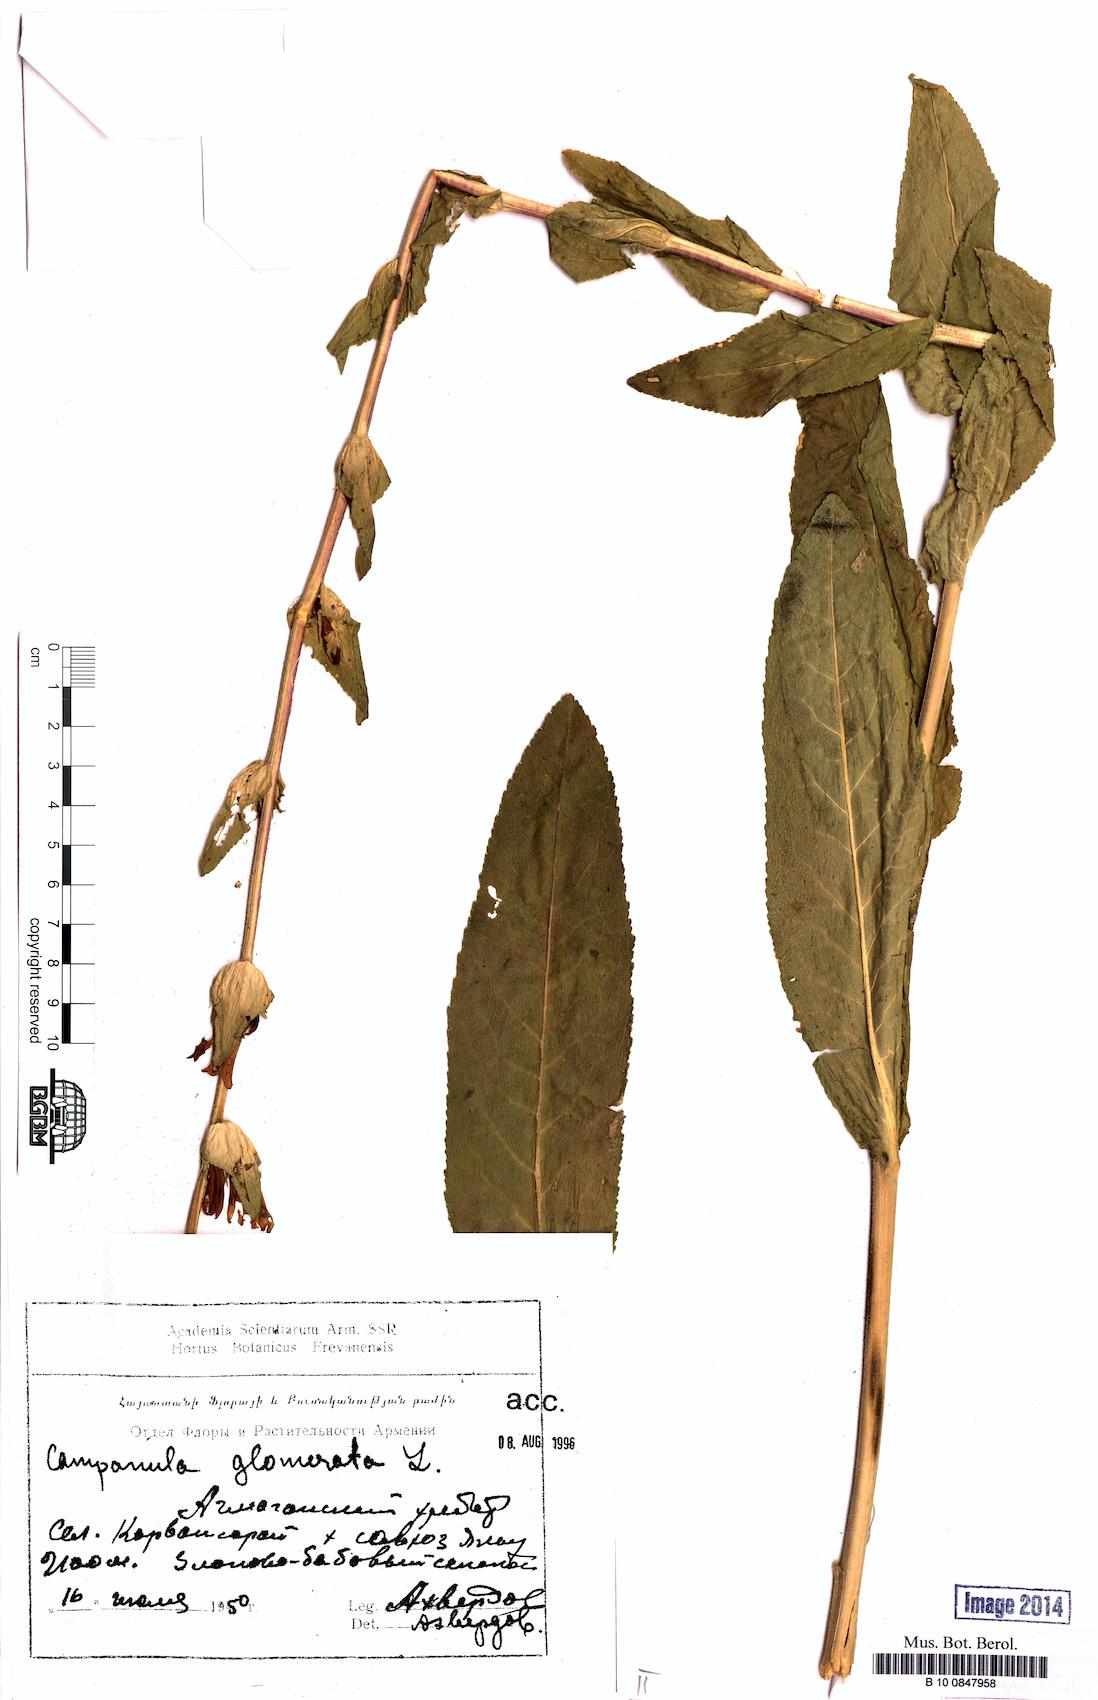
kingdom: Plantae
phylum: Tracheophyta
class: Magnoliopsida
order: Asterales
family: Campanulaceae
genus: Campanula
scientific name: Campanula glomerata
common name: Clustered bellflower
